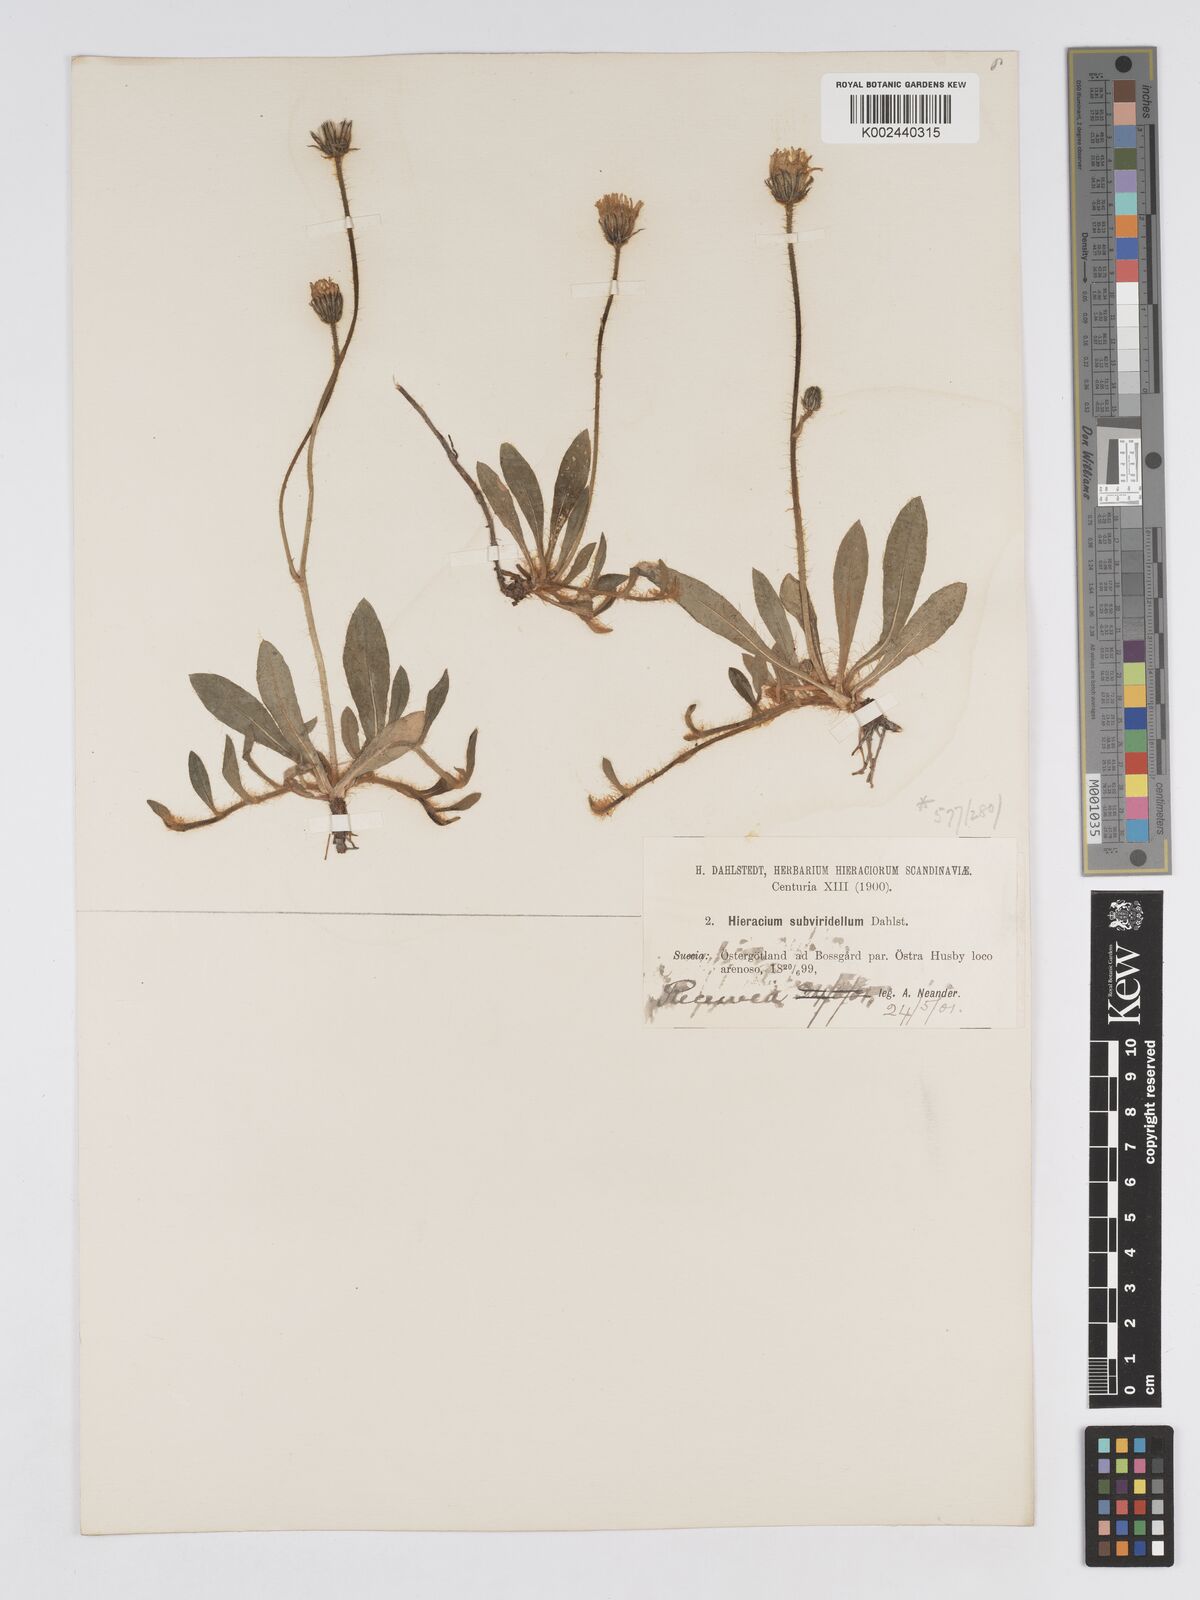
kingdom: Plantae
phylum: Tracheophyta
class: Magnoliopsida
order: Asterales
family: Asteraceae
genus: Pilosella
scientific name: Pilosella officinarum
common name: Mouse-ear hawkweed
